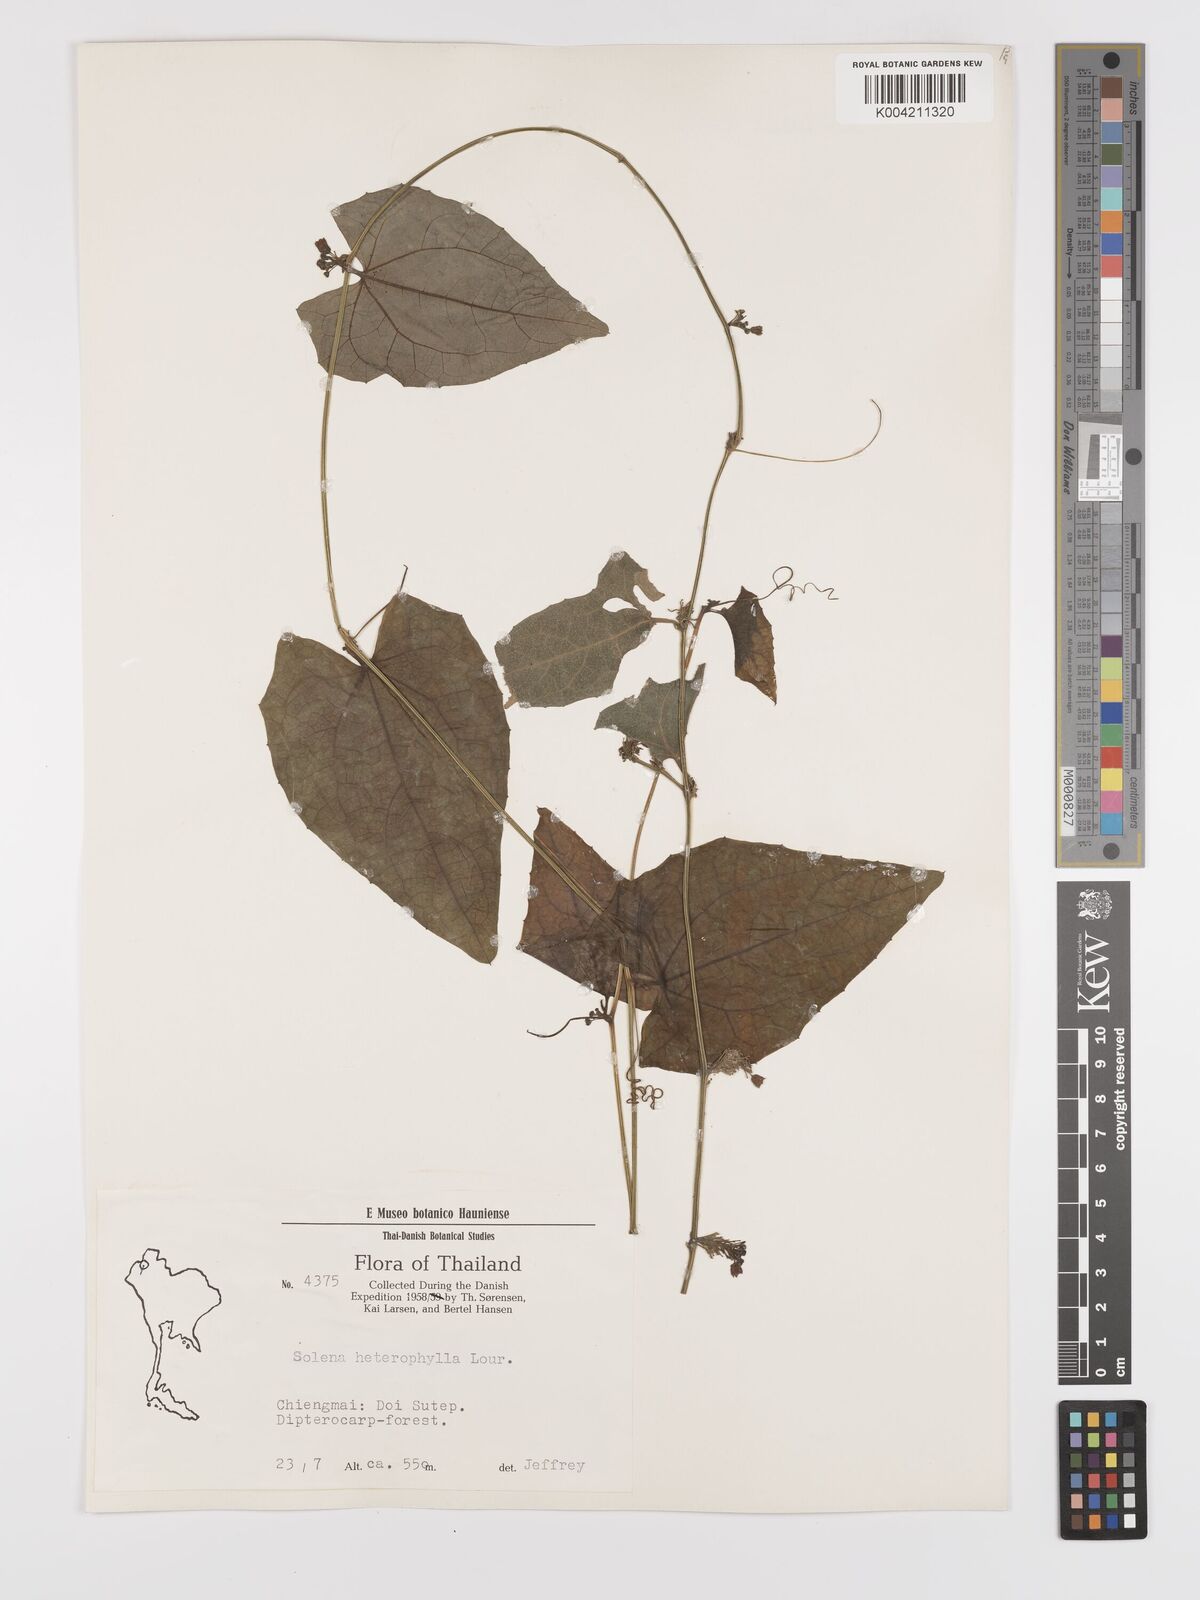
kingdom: Plantae
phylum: Tracheophyta
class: Magnoliopsida
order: Cucurbitales
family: Cucurbitaceae
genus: Solena
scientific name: Solena amplexicaulis
